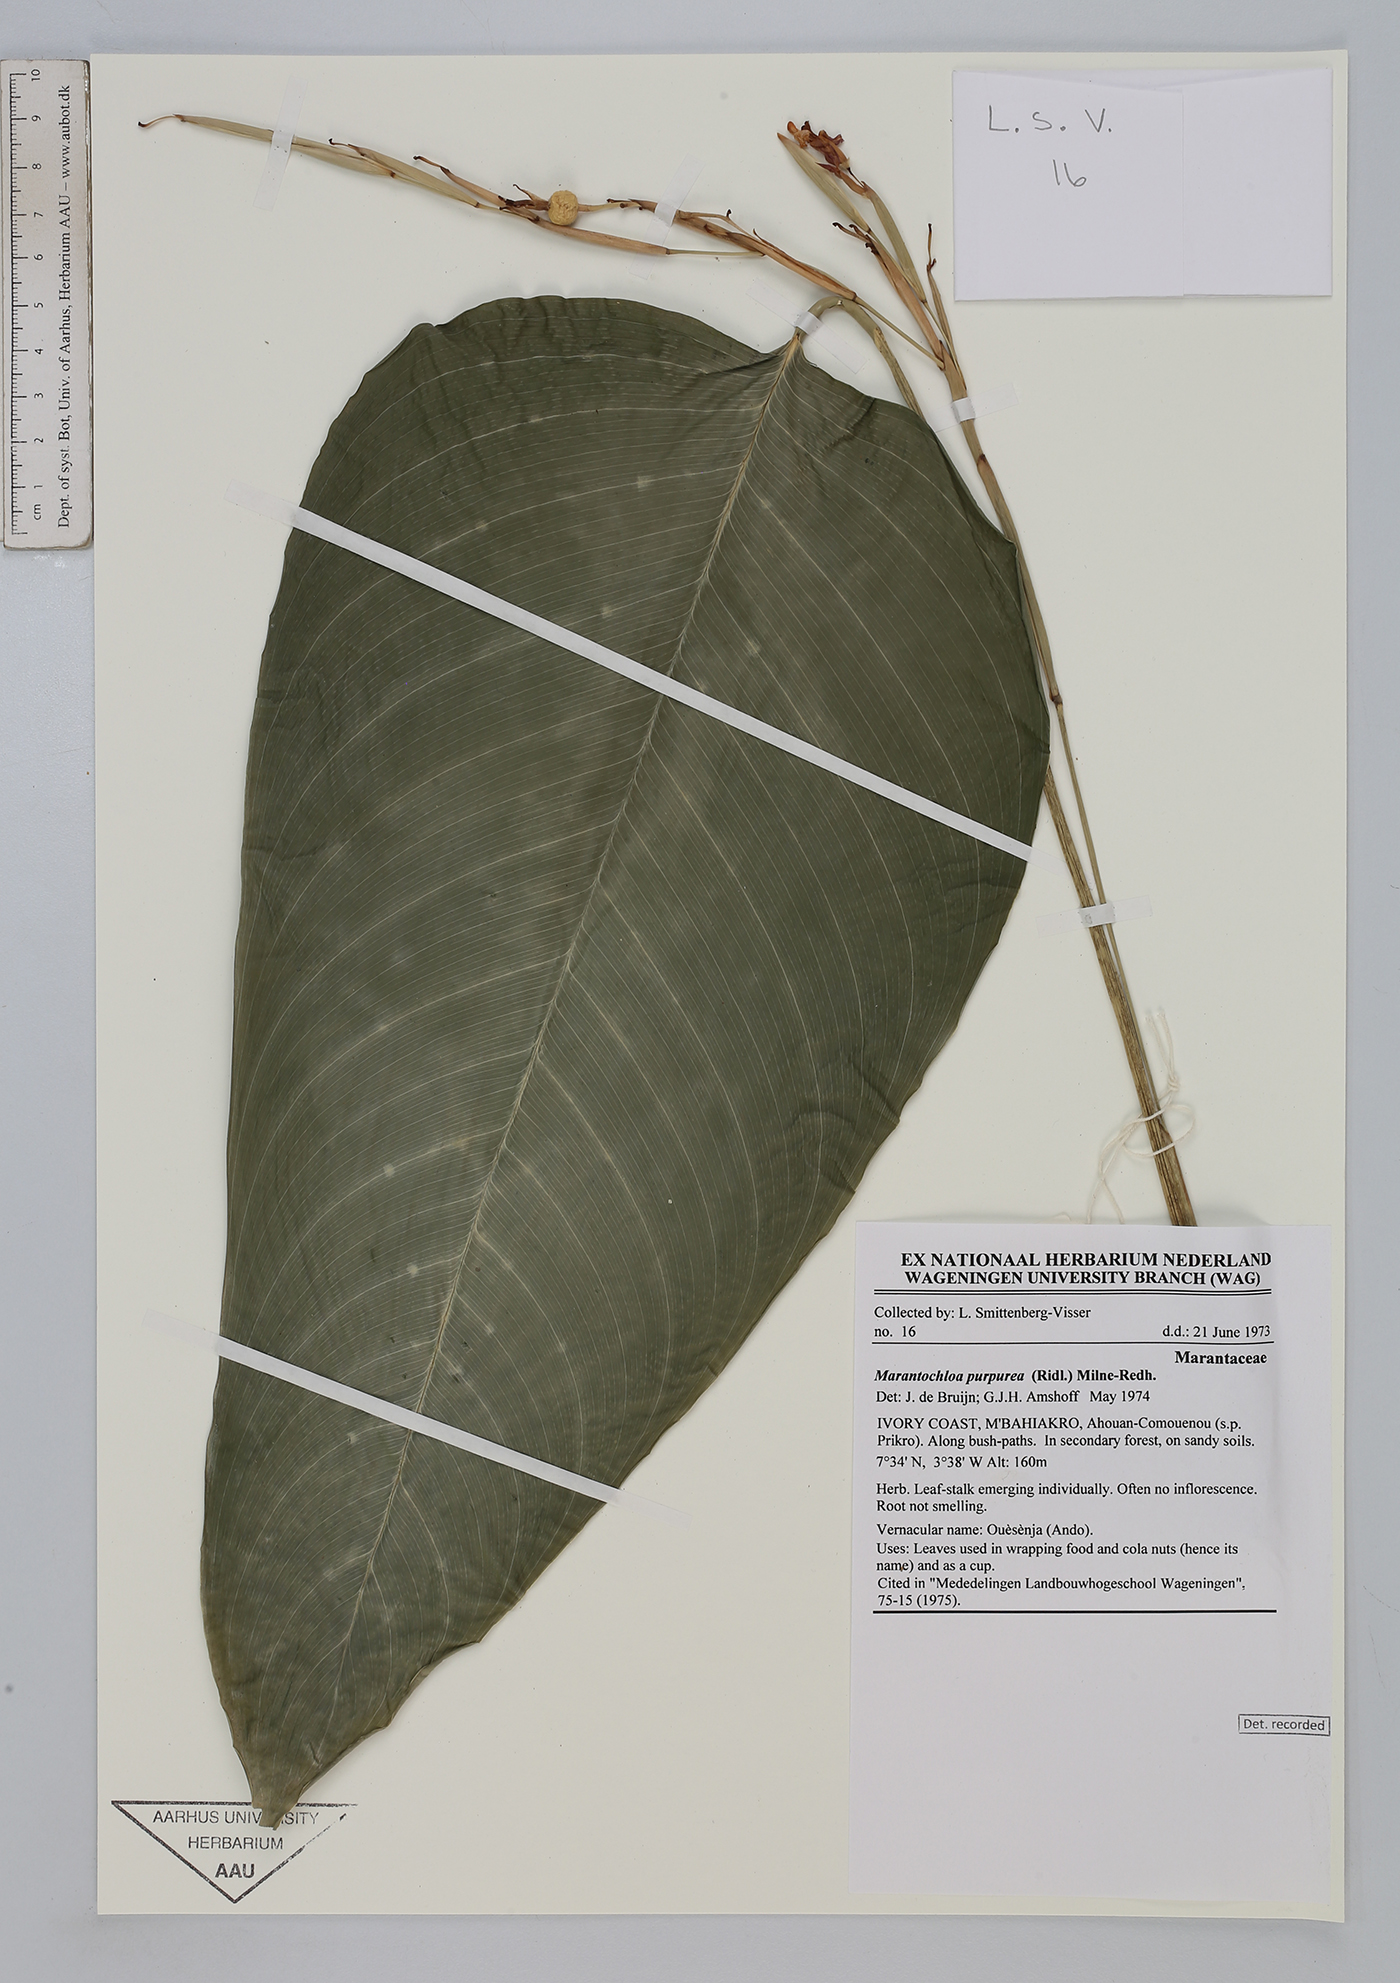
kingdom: Plantae
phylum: Tracheophyta
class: Liliopsida
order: Zingiberales
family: Marantaceae
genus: Marantochloa
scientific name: Marantochloa purpurea
